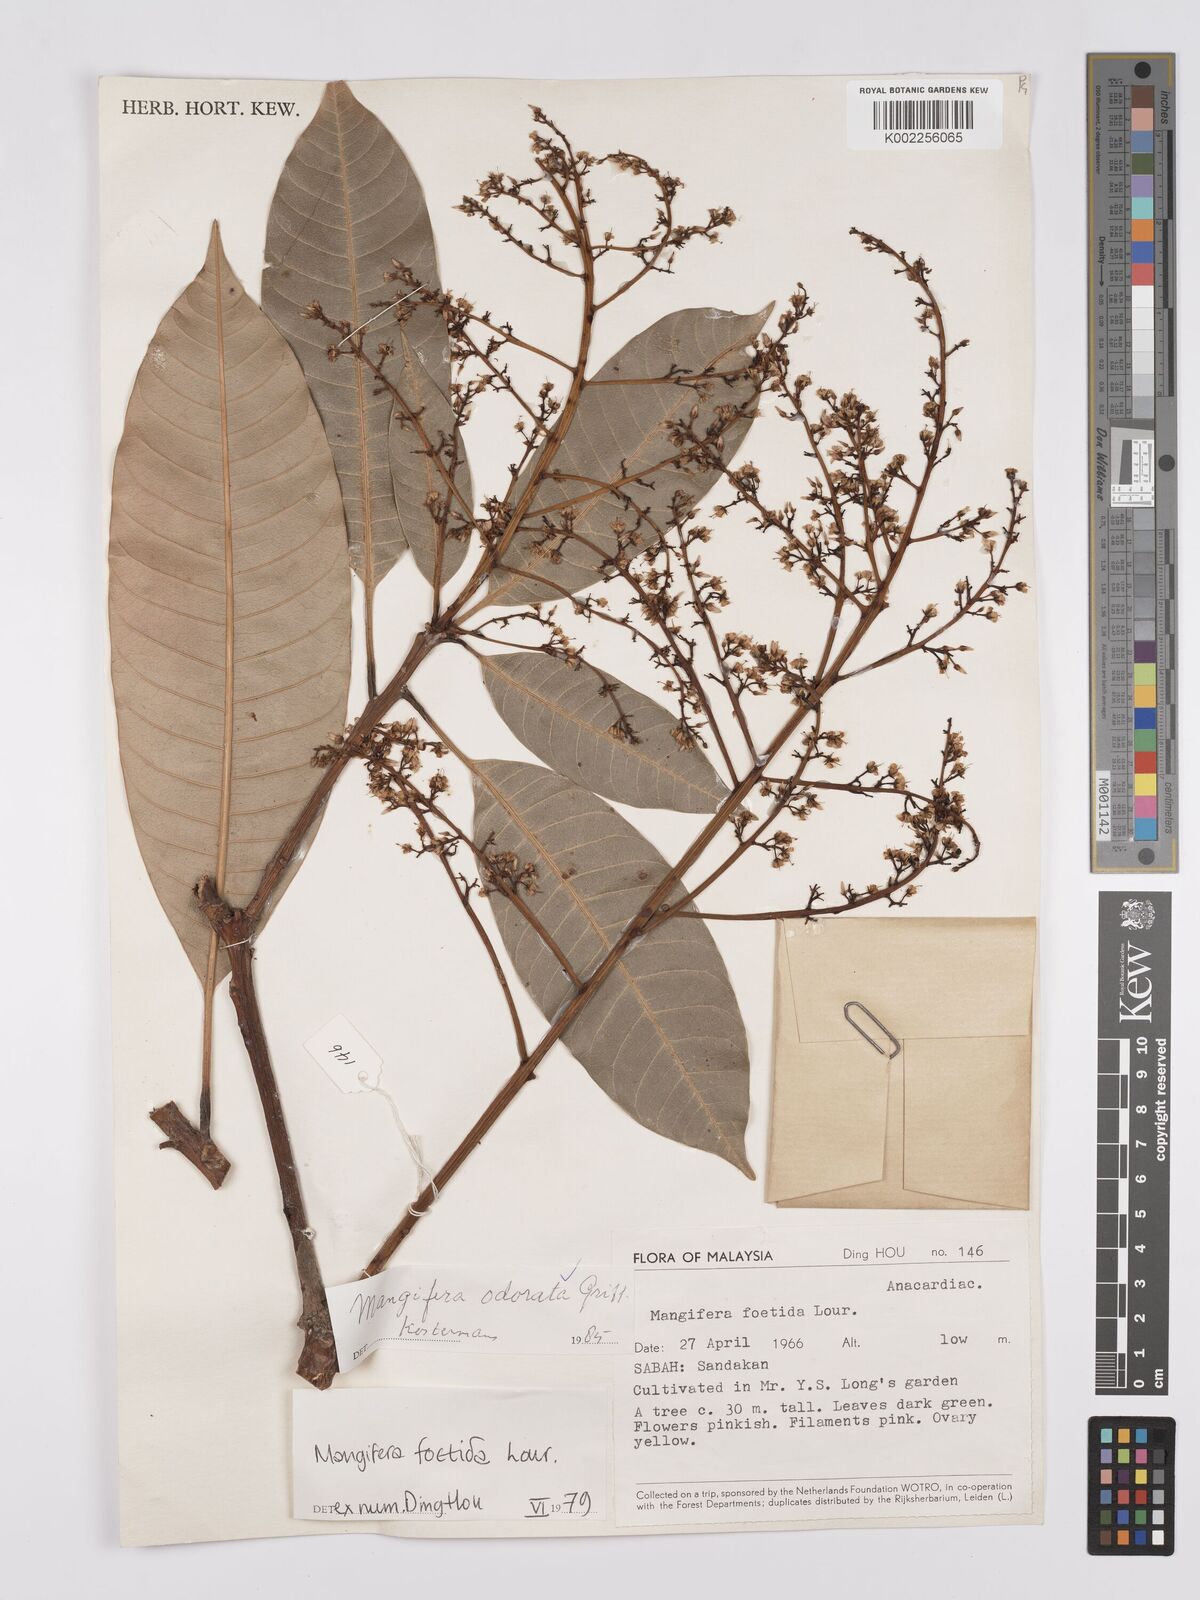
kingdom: Plantae
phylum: Tracheophyta
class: Magnoliopsida
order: Sapindales
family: Anacardiaceae
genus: Mangifera
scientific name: Mangifera odorata
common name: Saipan mango
